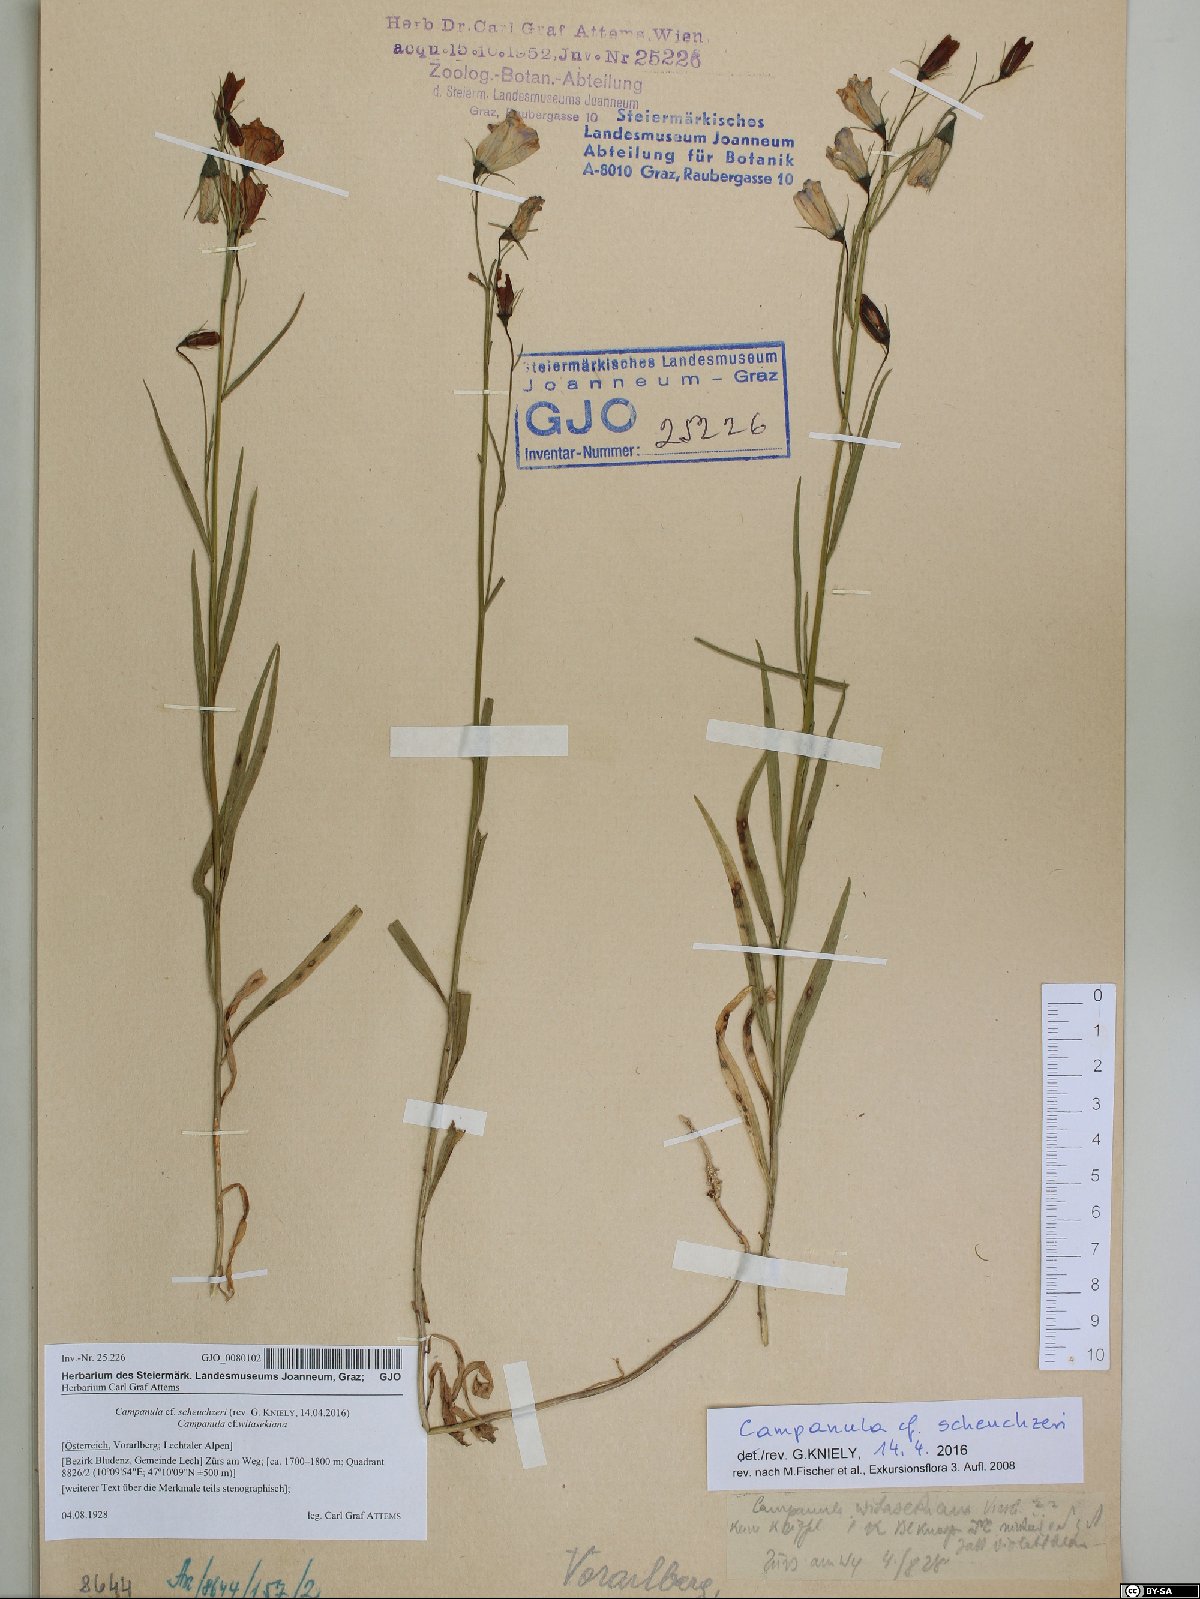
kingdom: Plantae
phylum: Tracheophyta
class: Magnoliopsida
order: Asterales
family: Campanulaceae
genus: Campanula
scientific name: Campanula scheuchzeri
